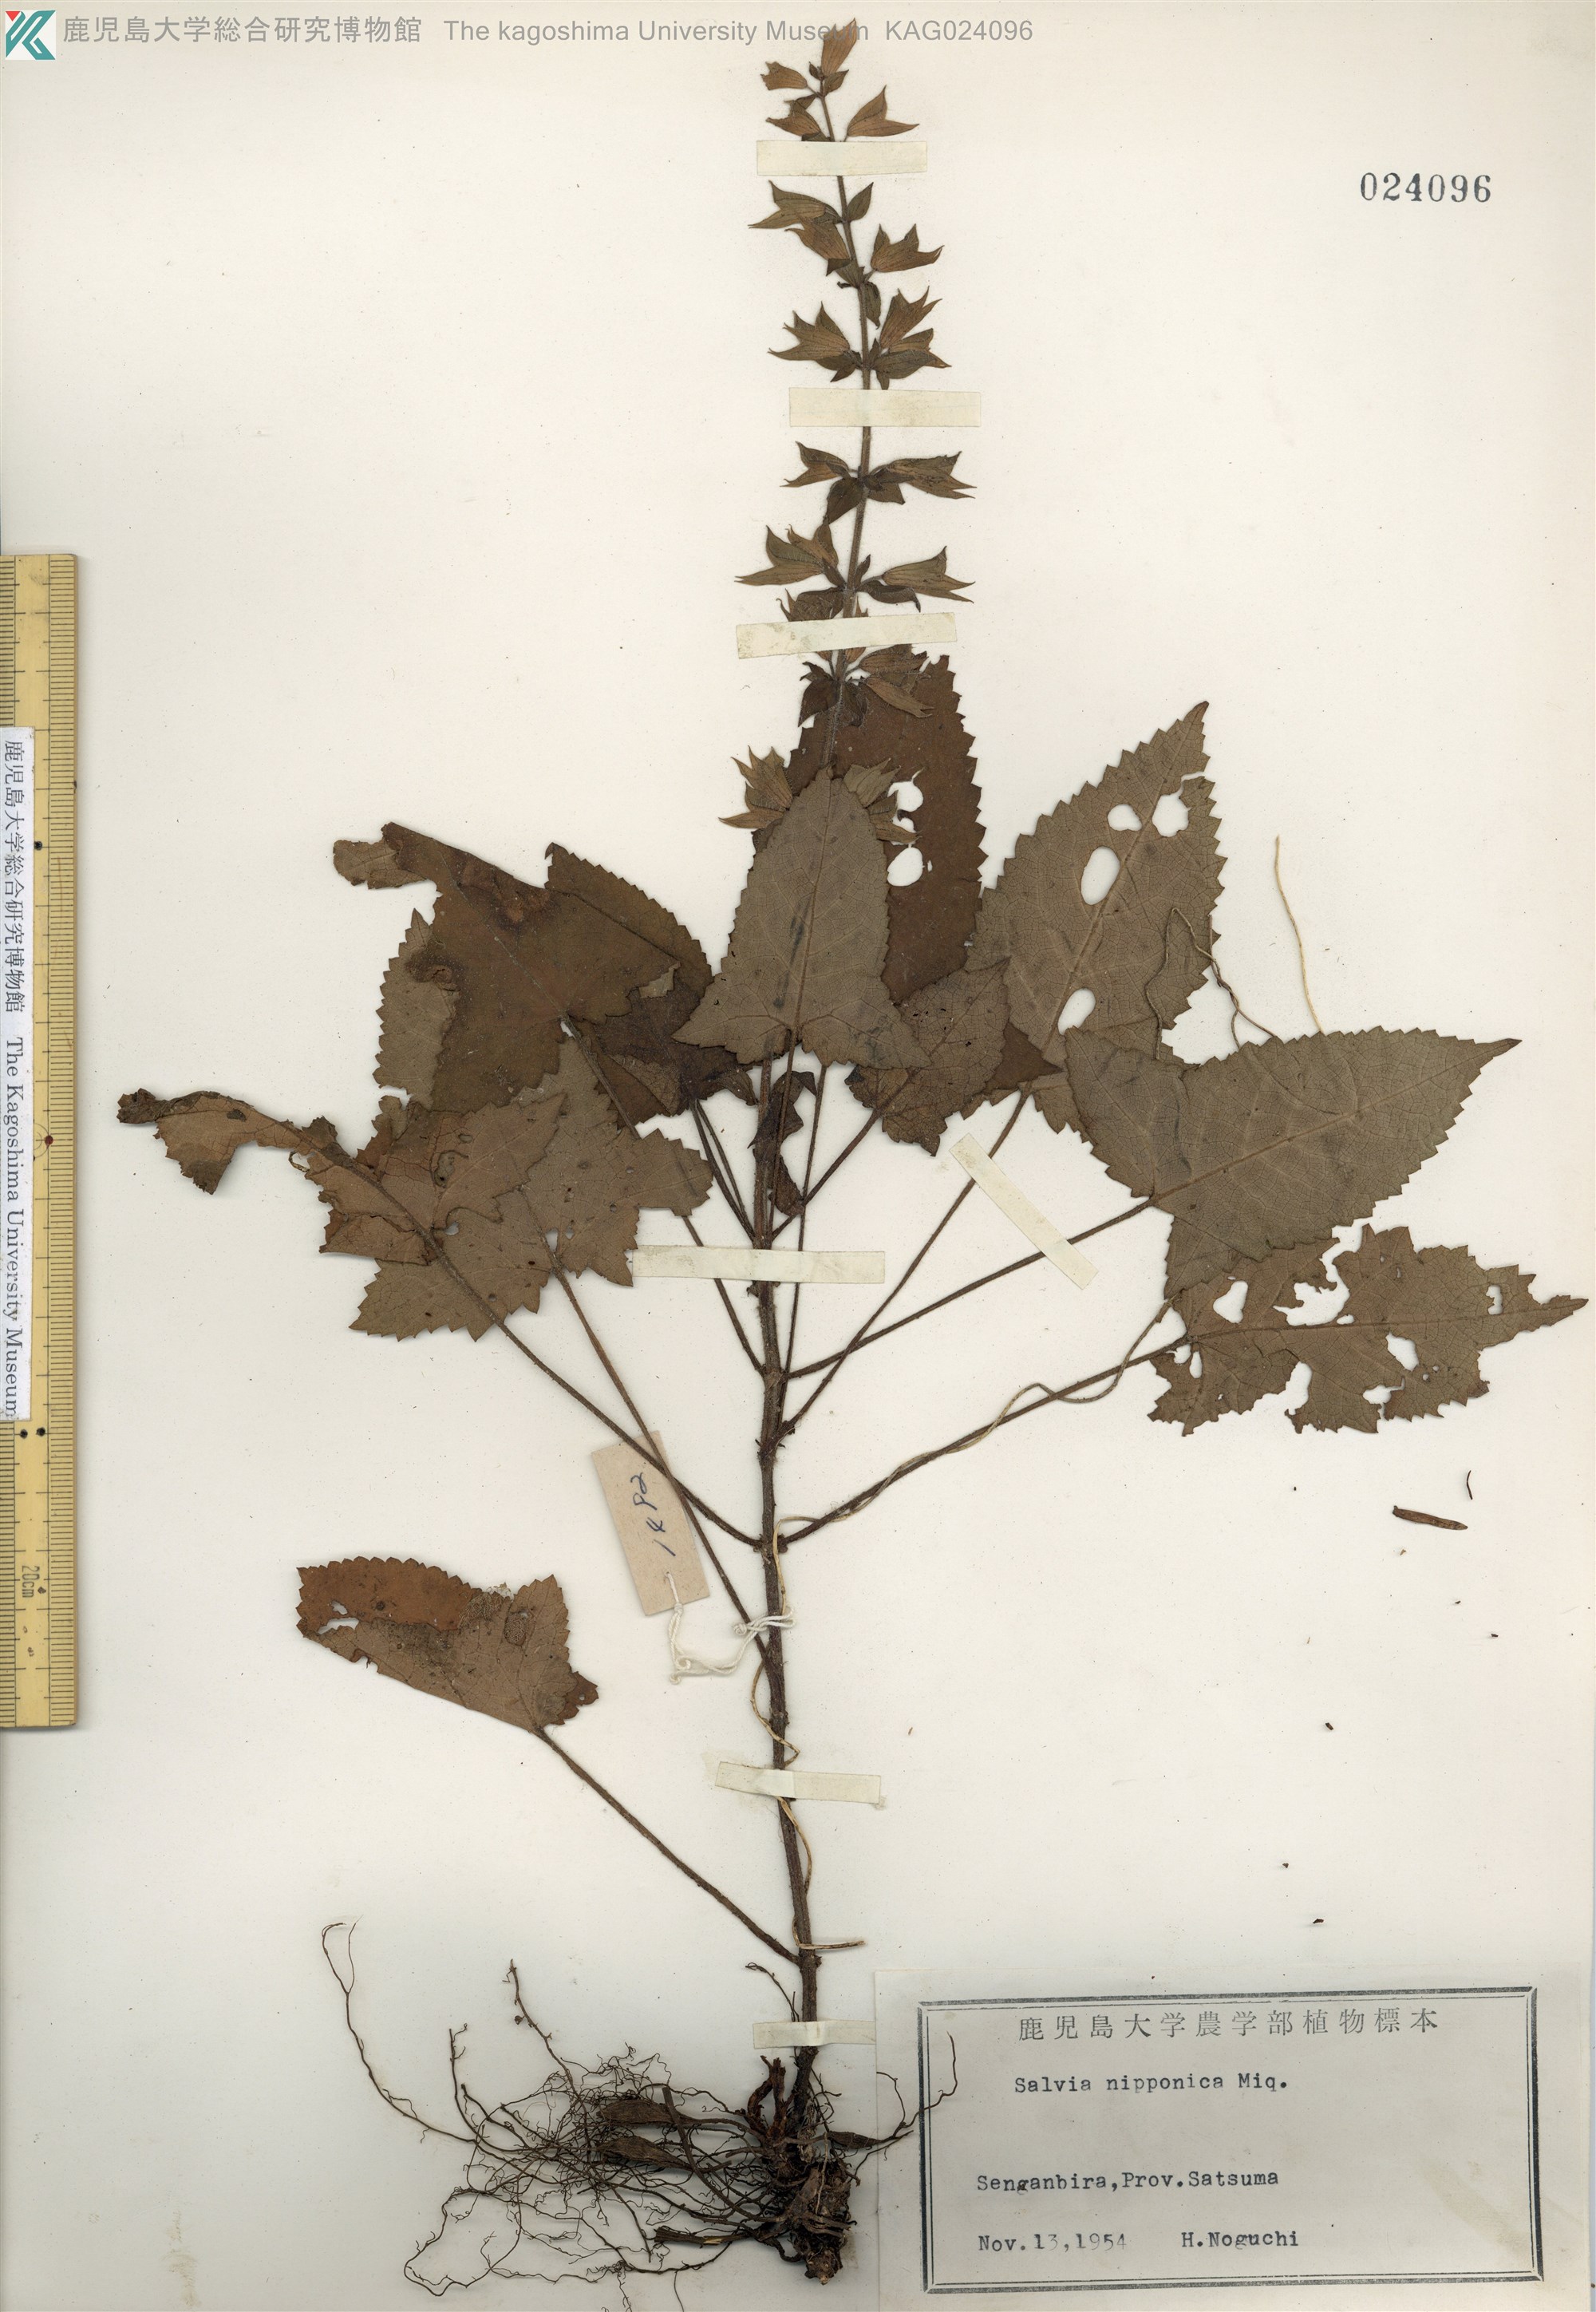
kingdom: Plantae
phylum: Tracheophyta
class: Magnoliopsida
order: Lamiales
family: Lamiaceae
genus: Salvia
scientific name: Salvia nipponica
